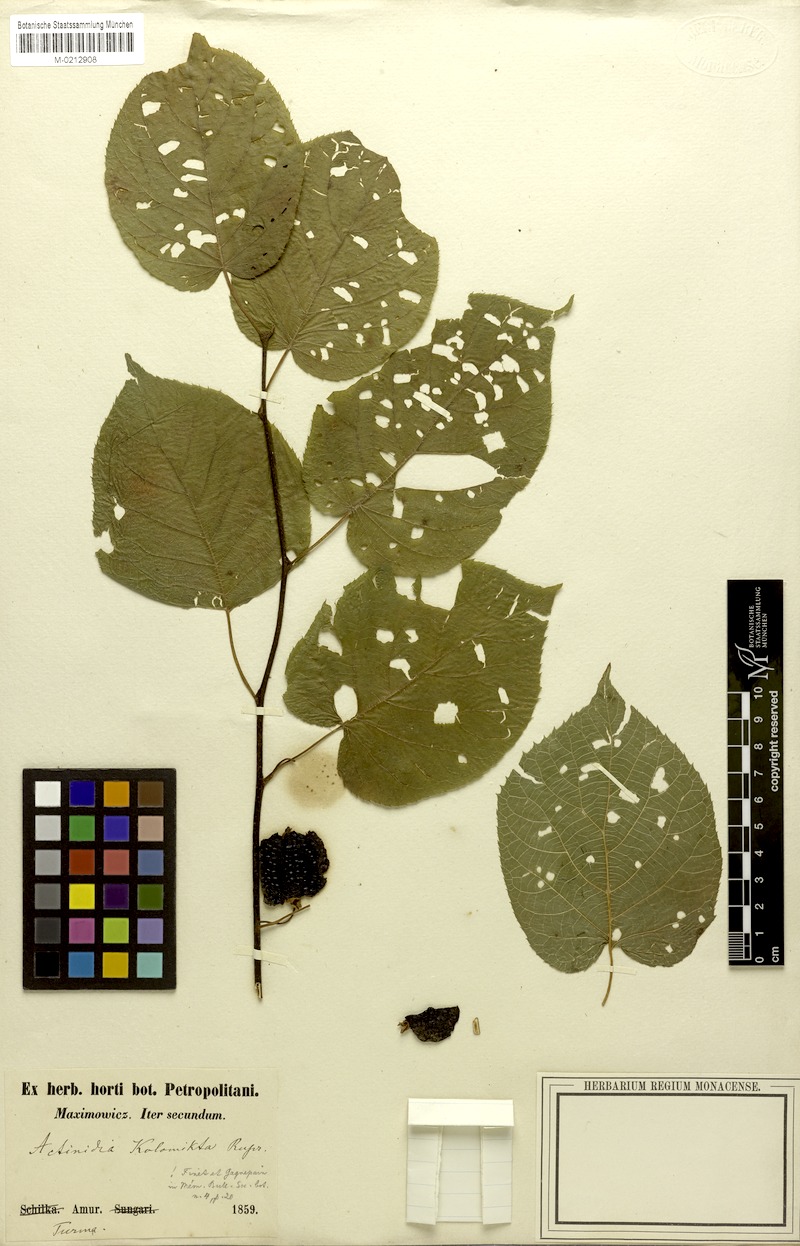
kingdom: Plantae
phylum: Tracheophyta
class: Magnoliopsida
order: Ericales
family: Actinidiaceae
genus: Actinidia
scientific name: Actinidia kolomikta
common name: Arctic beauty kiwi
